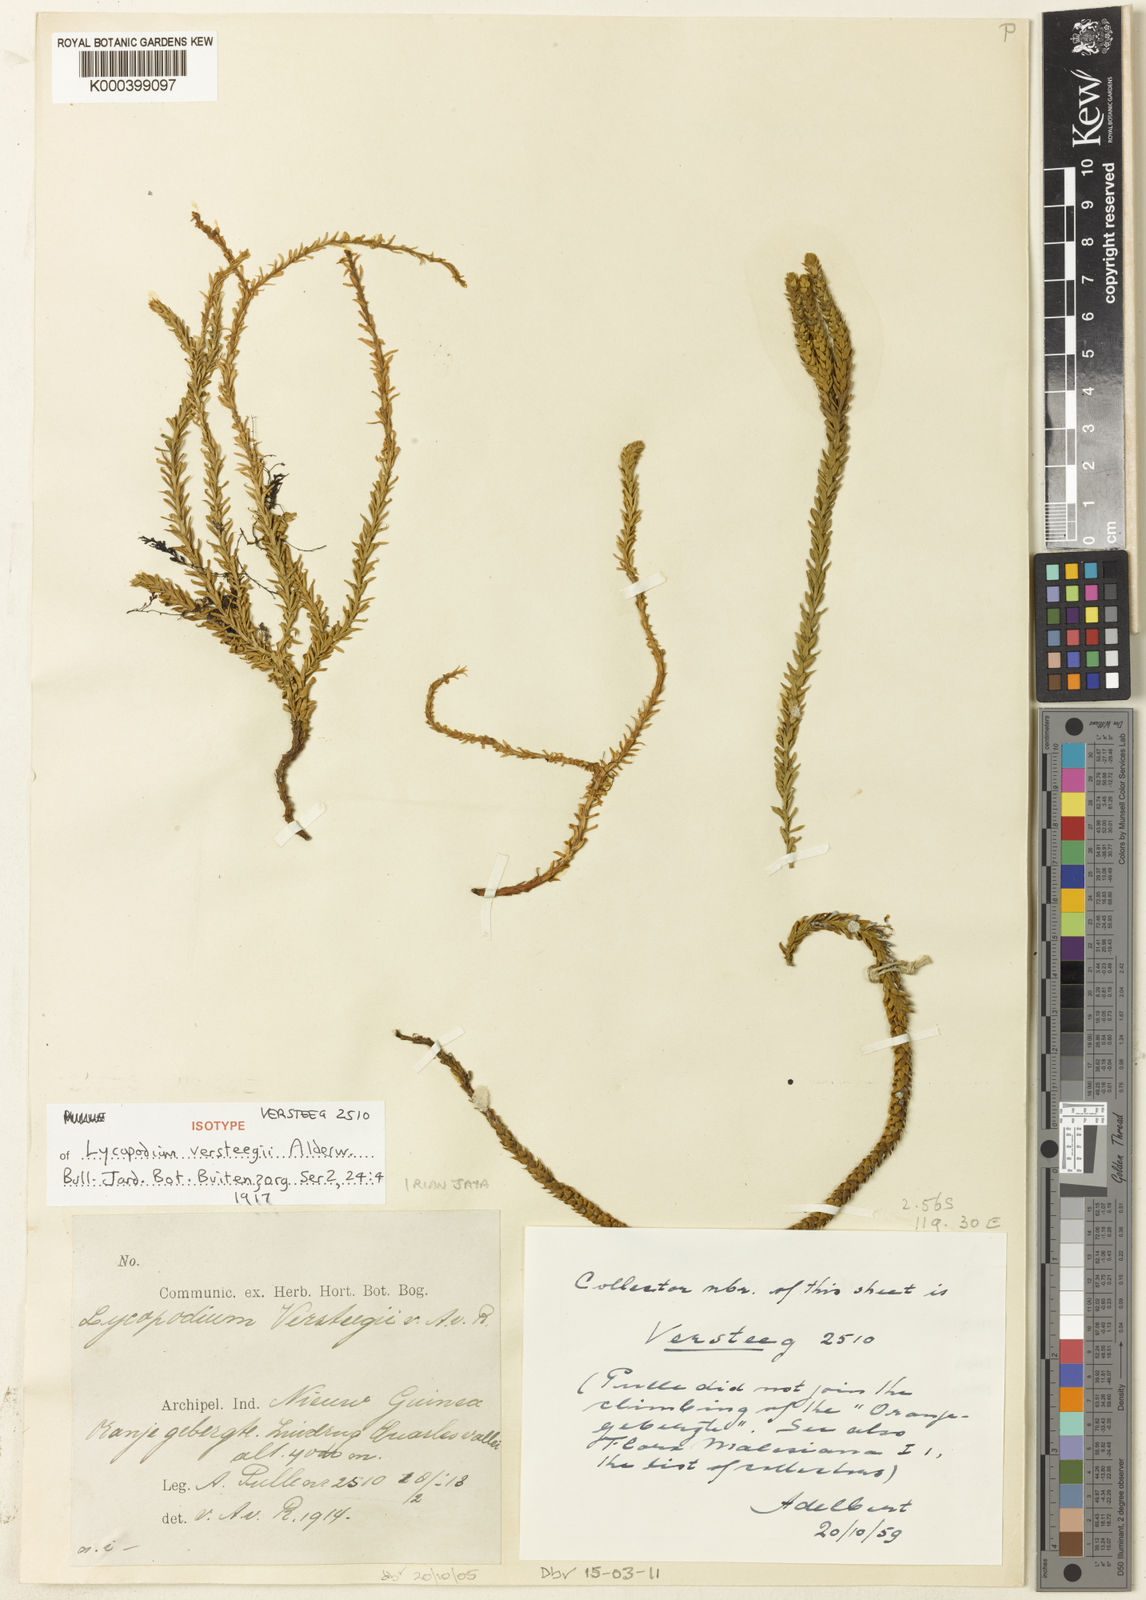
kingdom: Plantae
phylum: Tracheophyta
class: Lycopodiopsida
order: Lycopodiales
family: Lycopodiaceae
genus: Phlegmariurus
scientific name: Phlegmariurus macgregorii
